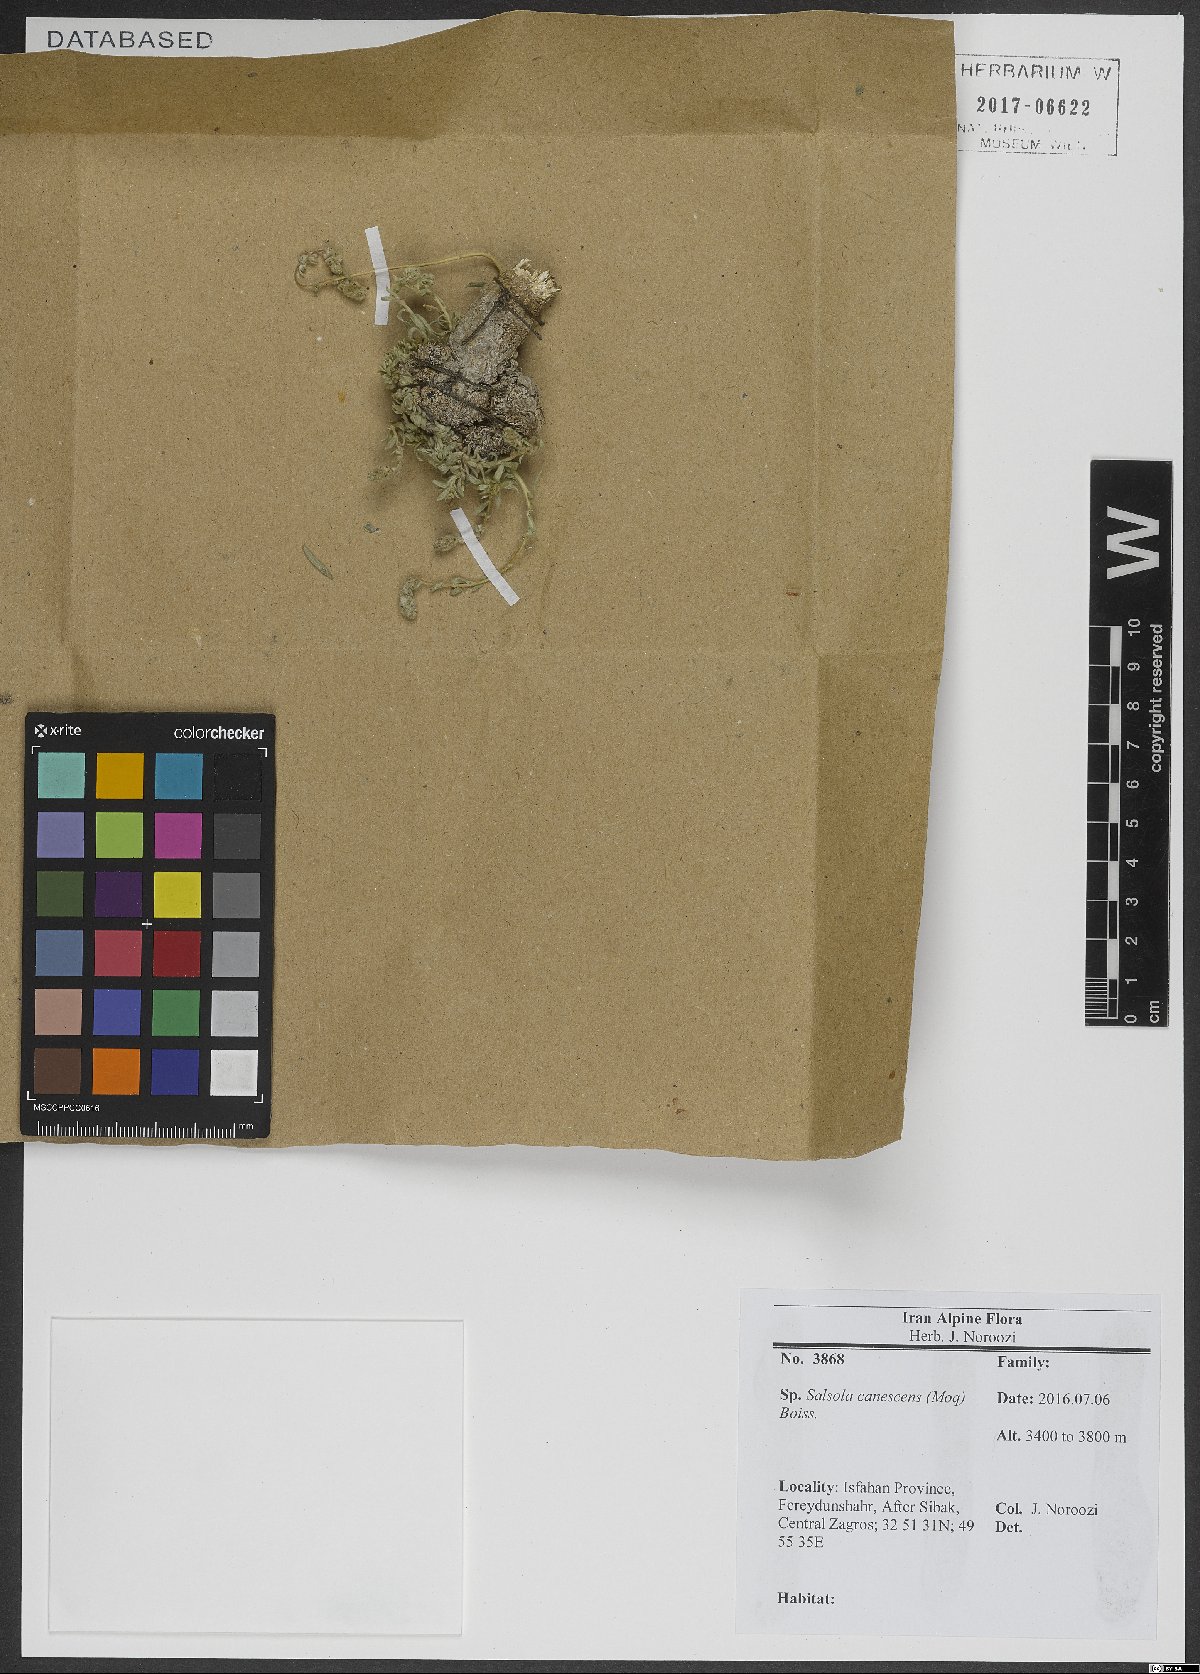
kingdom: Plantae
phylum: Tracheophyta
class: Magnoliopsida
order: Caryophyllales
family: Amaranthaceae
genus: Akhania
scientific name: Akhania canescens
